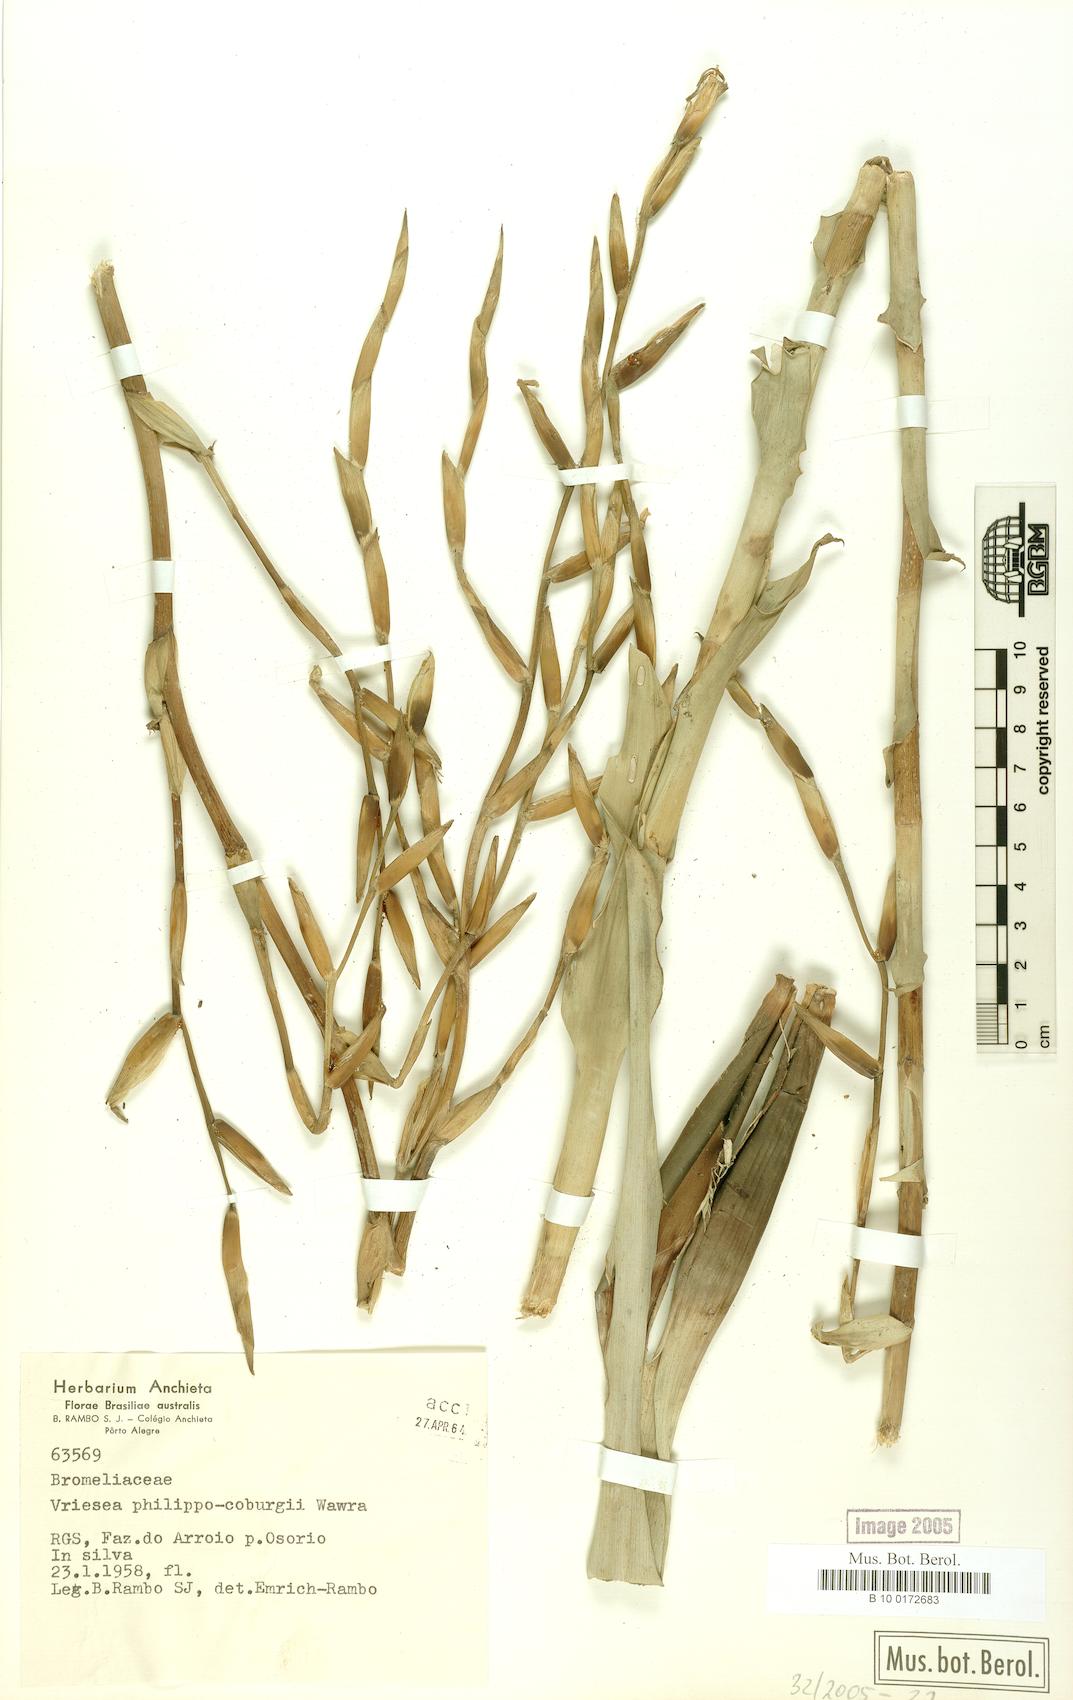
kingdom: Plantae
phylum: Tracheophyta
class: Liliopsida
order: Poales
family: Bromeliaceae
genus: Vriesea
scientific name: Vriesea philippocoburgi
